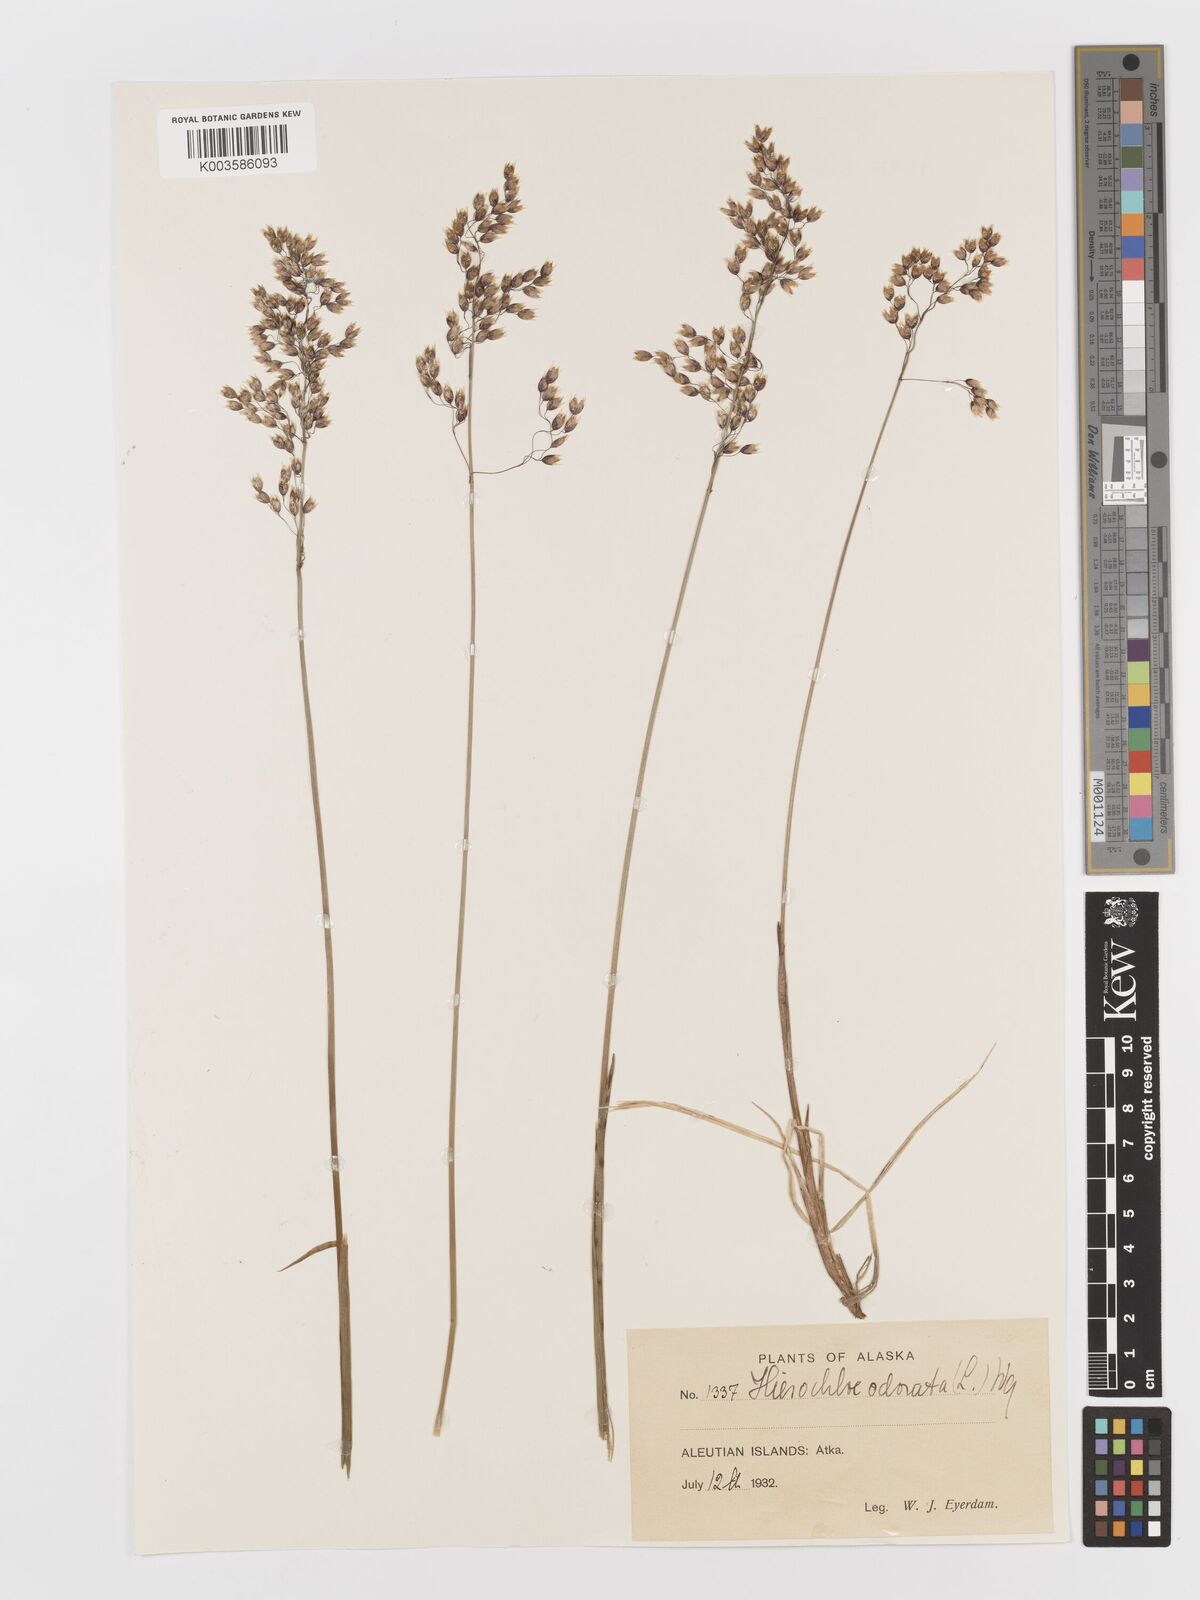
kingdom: Plantae
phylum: Tracheophyta
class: Liliopsida
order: Poales
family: Poaceae
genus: Anthoxanthum
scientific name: Anthoxanthum nitens
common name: Holy grass
